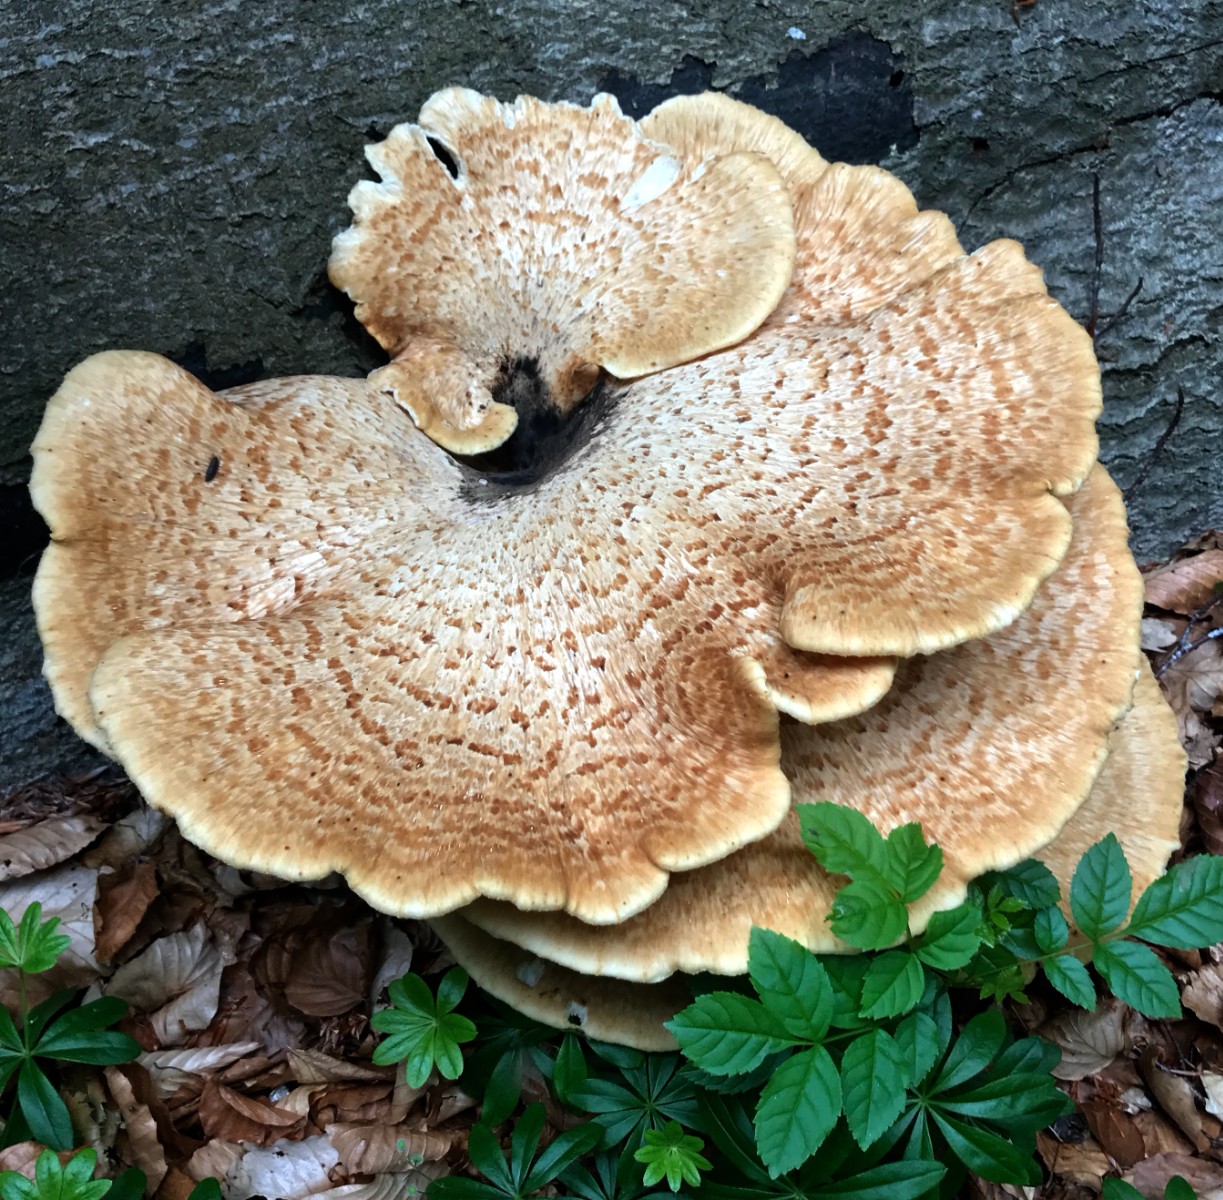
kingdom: Fungi
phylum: Basidiomycota
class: Agaricomycetes
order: Polyporales
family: Polyporaceae
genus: Cerioporus
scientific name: Cerioporus squamosus
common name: skællet stilkporesvamp
